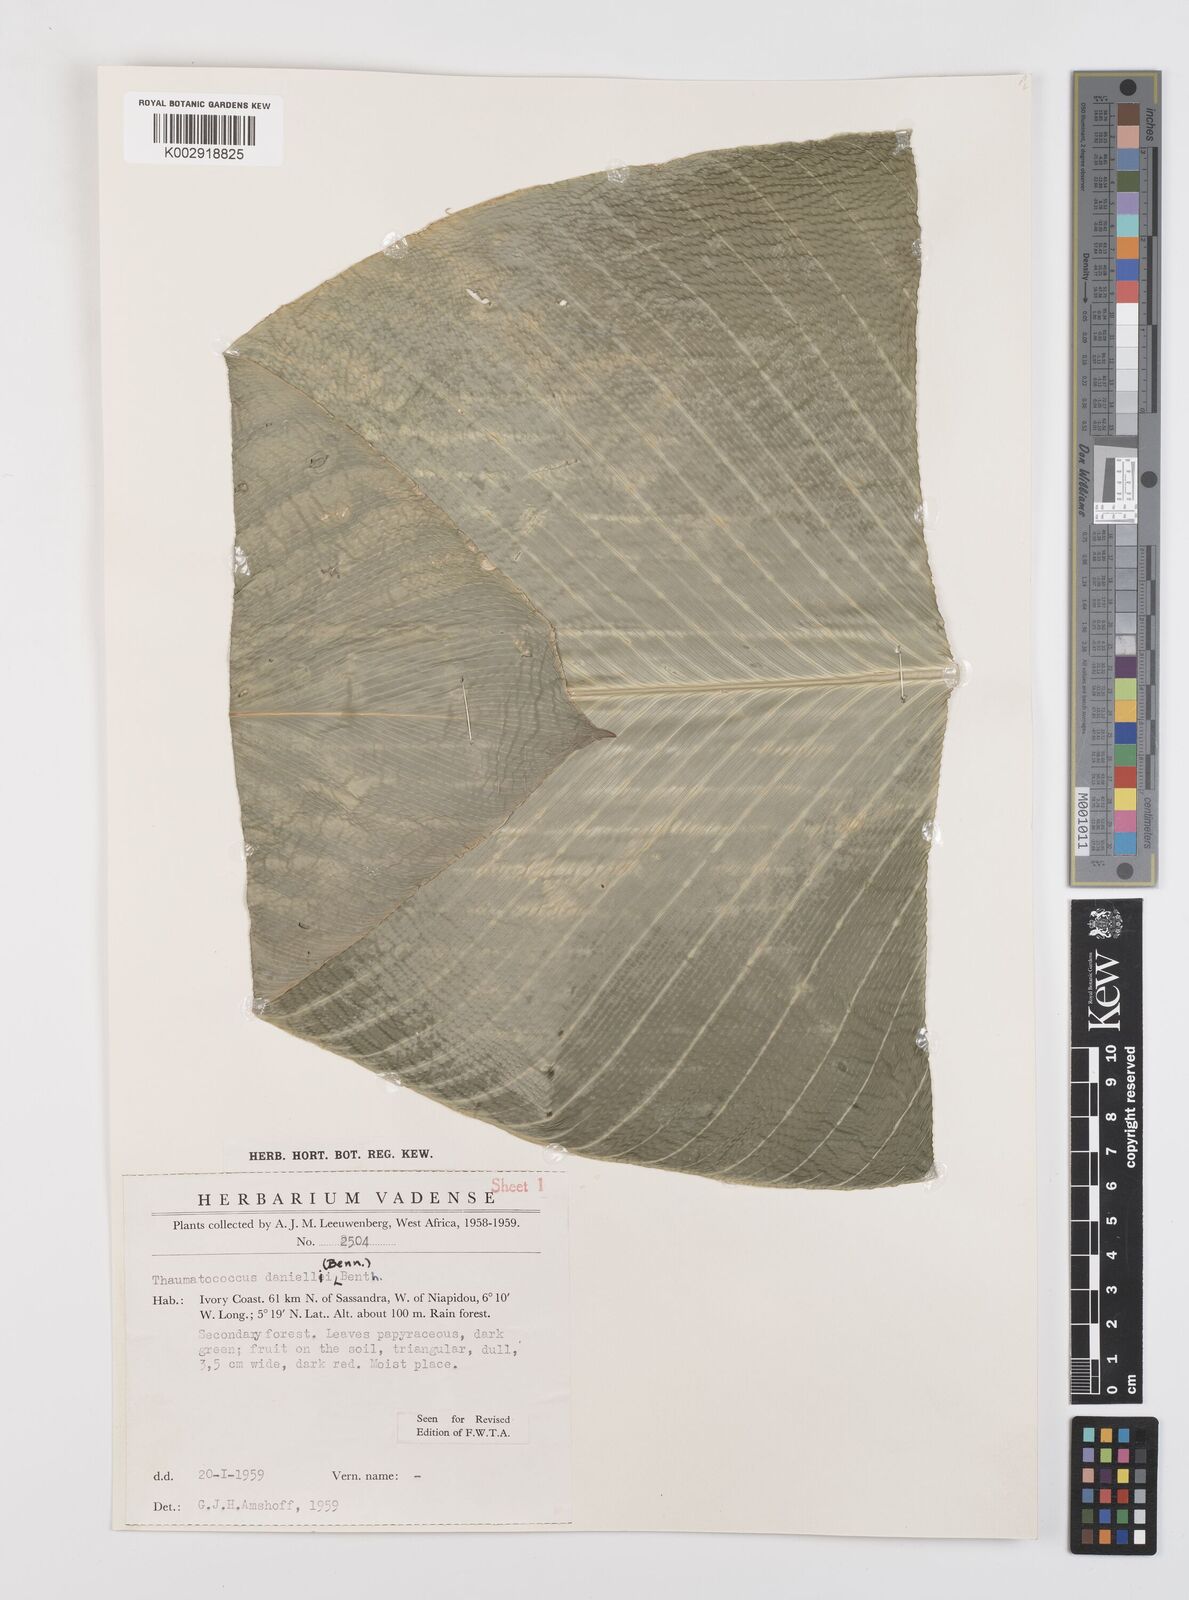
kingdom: Plantae
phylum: Tracheophyta
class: Liliopsida
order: Zingiberales
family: Marantaceae
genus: Thaumatococcus
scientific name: Thaumatococcus daniellii
